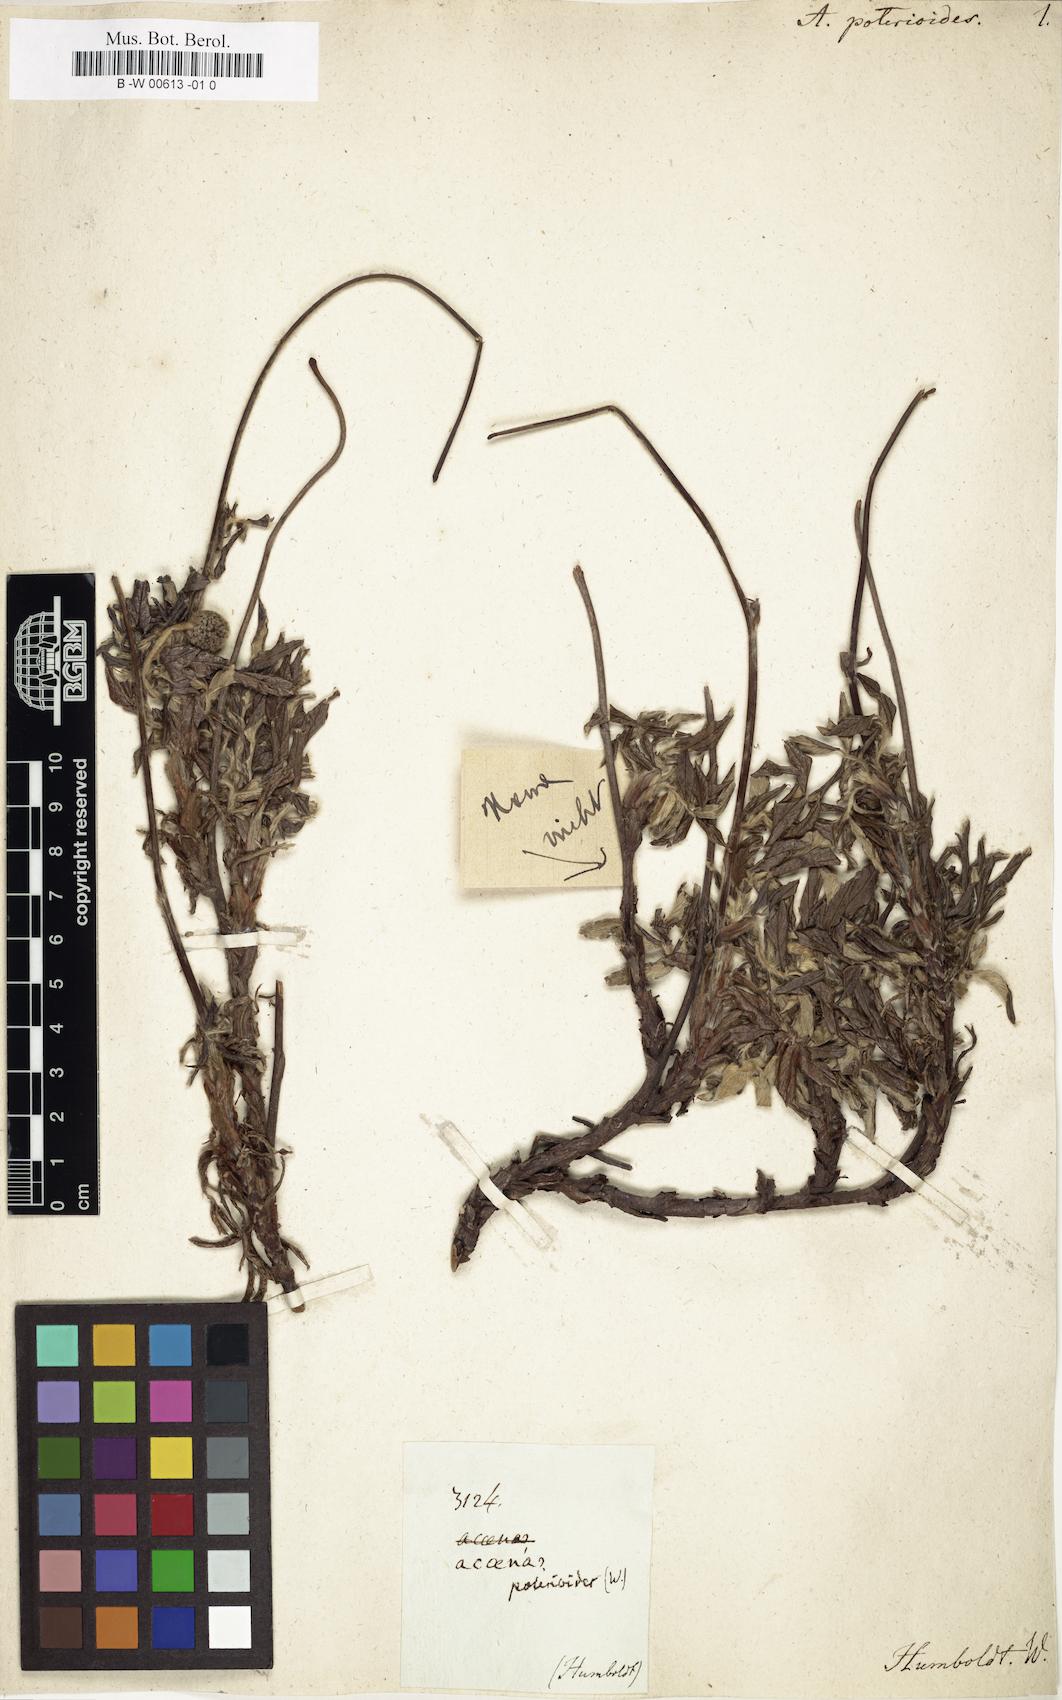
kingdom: Plantae
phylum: Tracheophyta
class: Magnoliopsida
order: Rosales
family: Rosaceae
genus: Acaena
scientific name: Acaena poterioides
